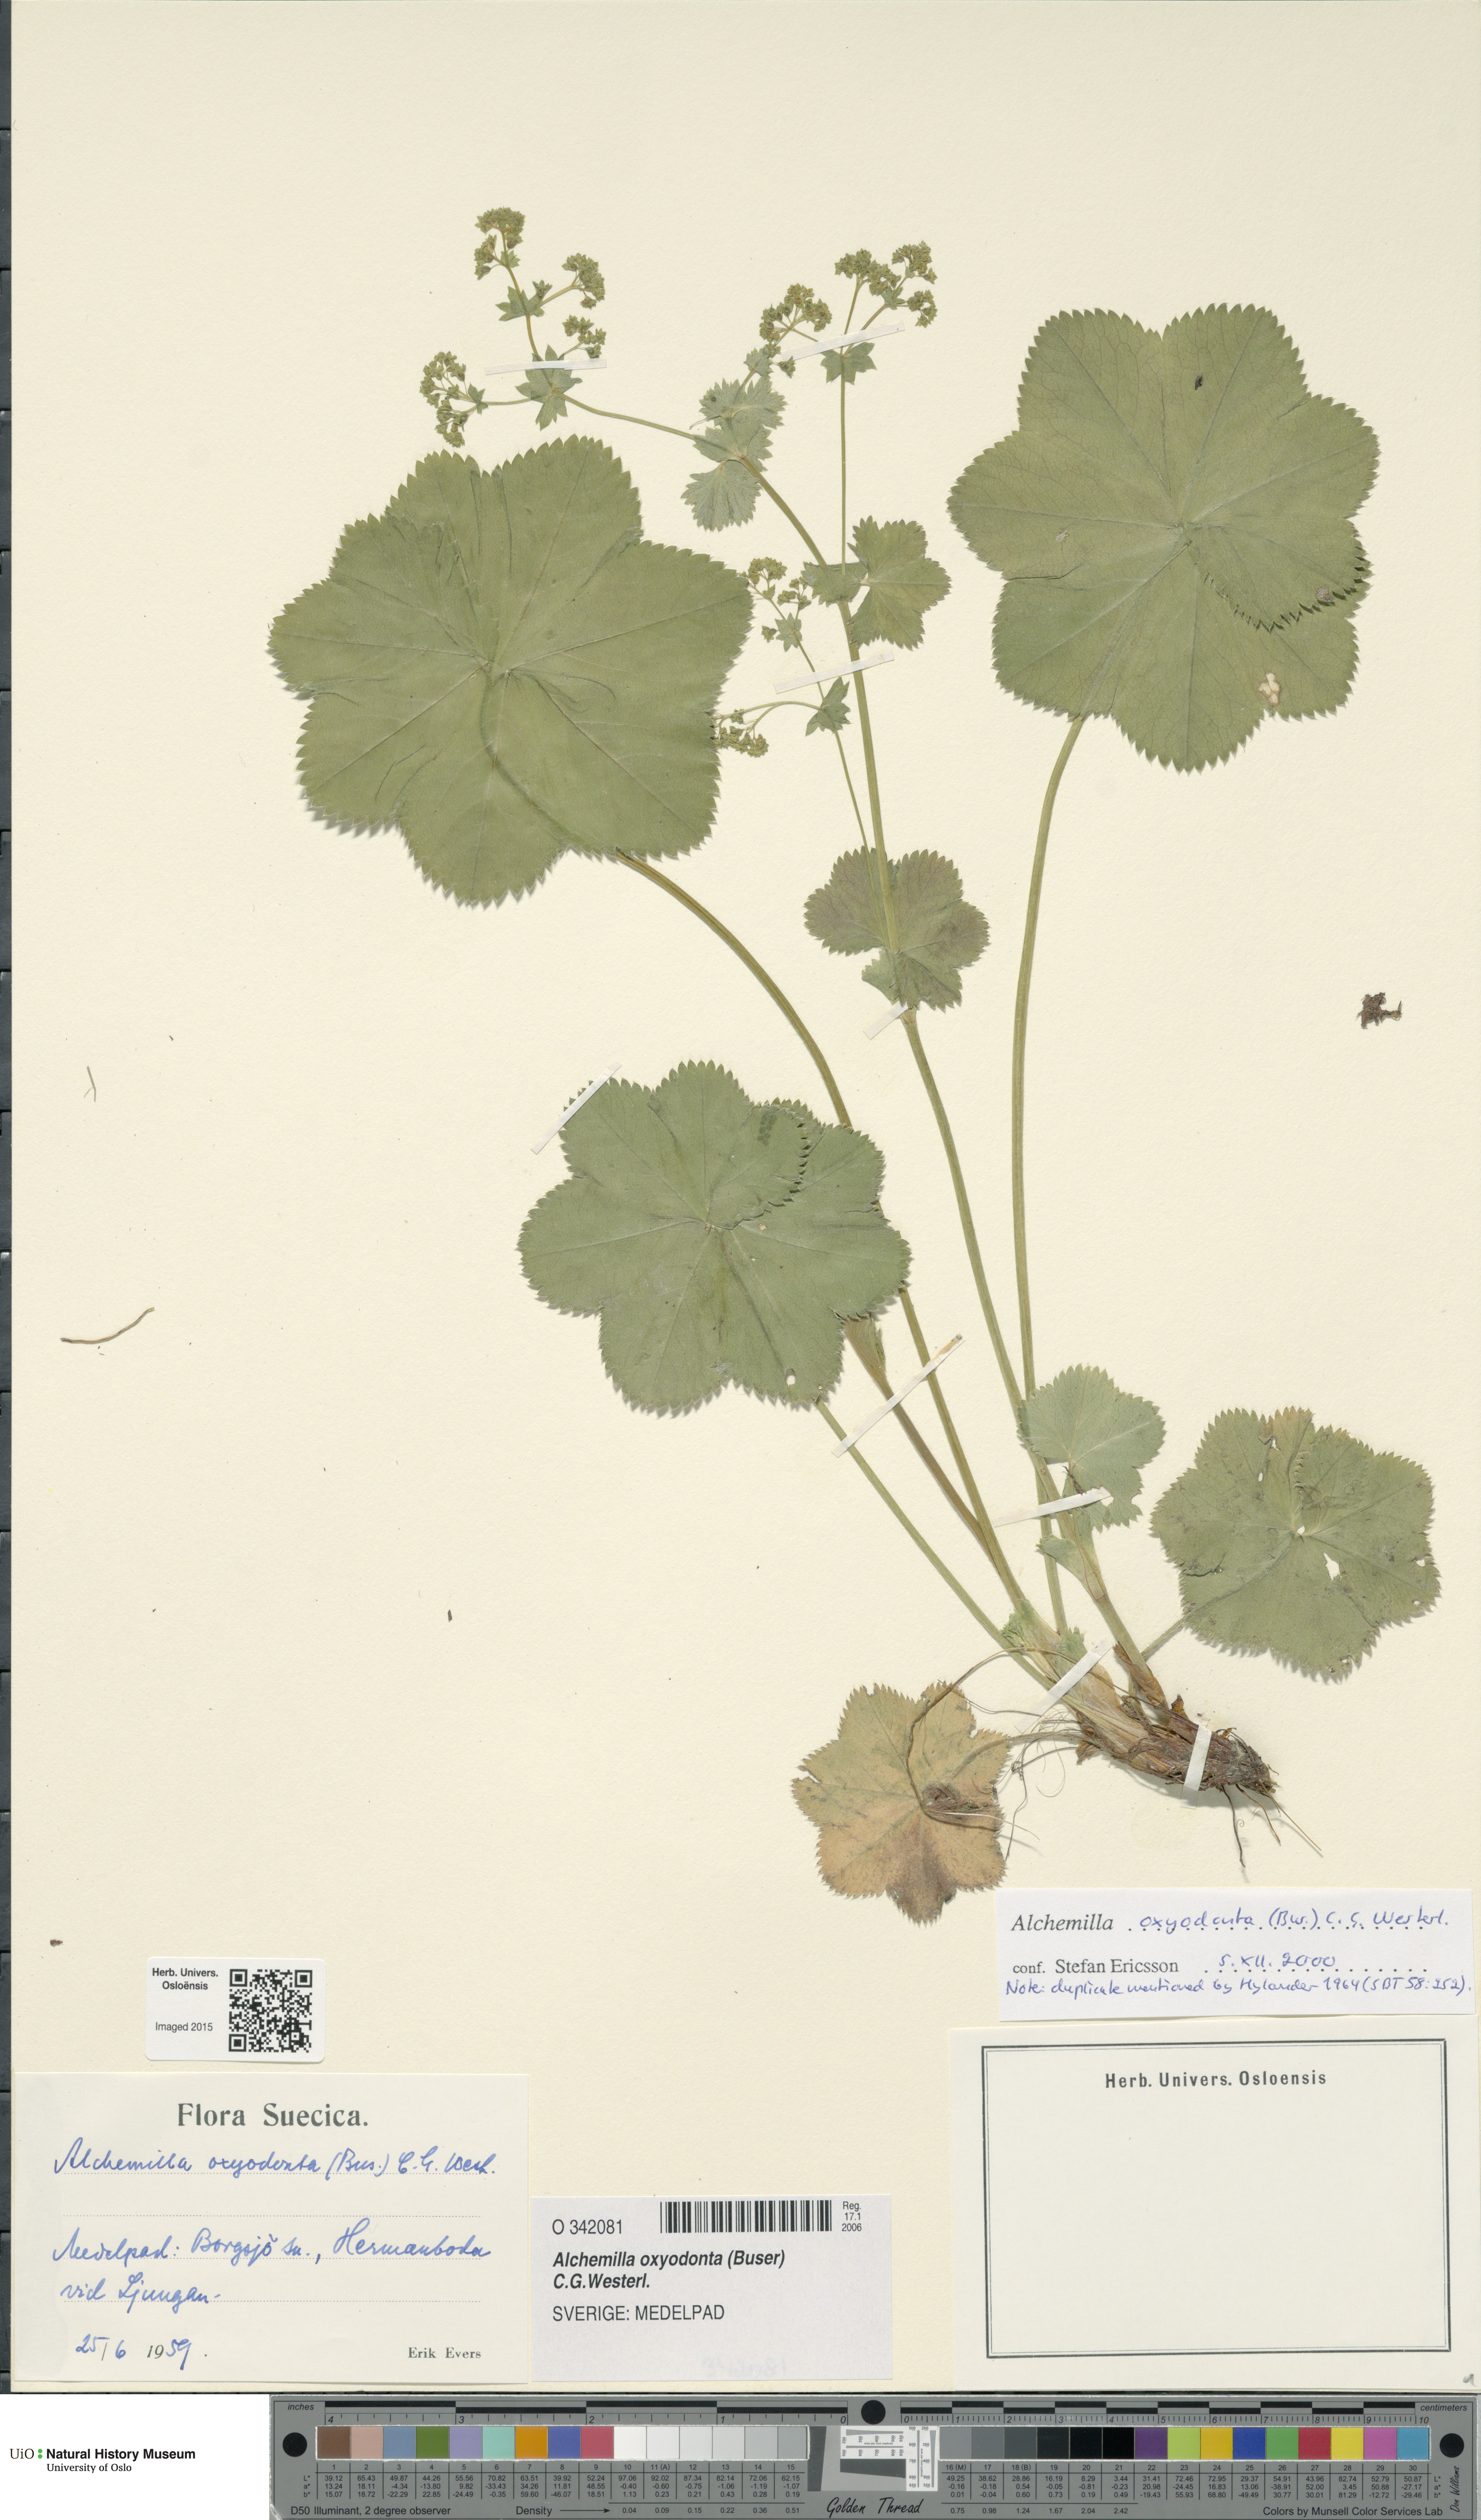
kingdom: Plantae
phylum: Tracheophyta
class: Magnoliopsida
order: Rosales
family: Rosaceae
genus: Alchemilla
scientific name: Alchemilla oxyodonta
